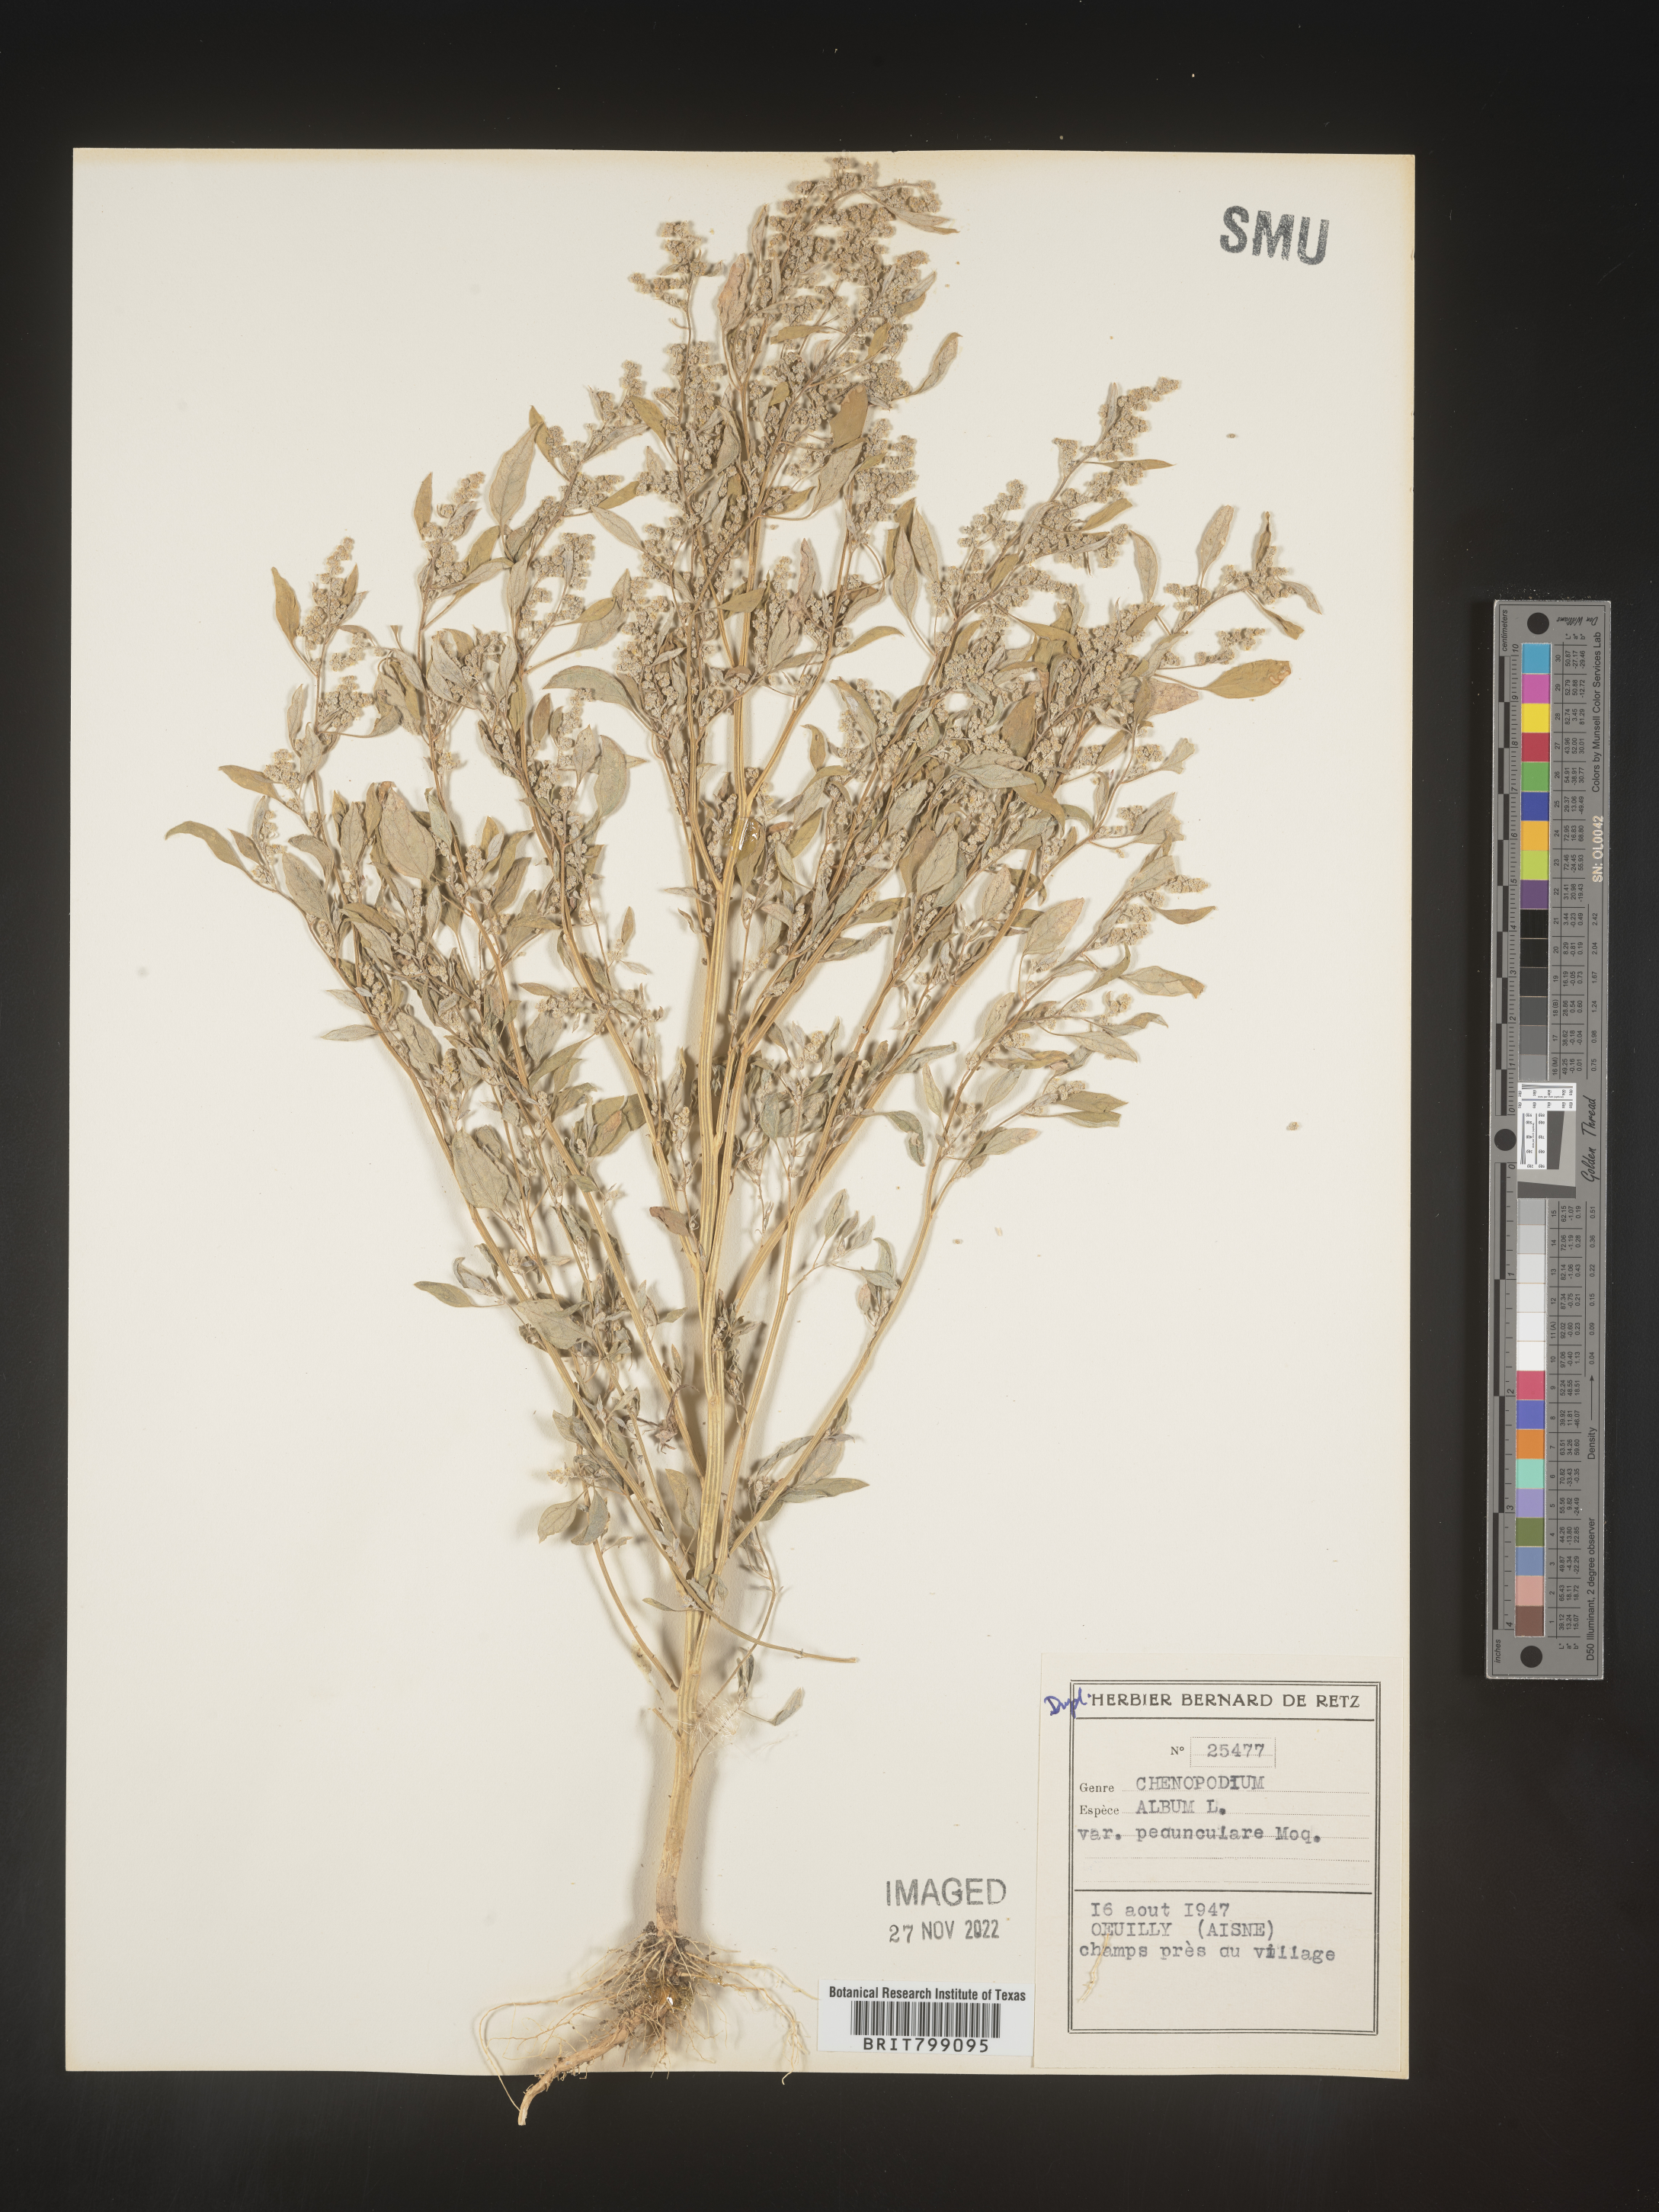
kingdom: Plantae
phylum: Tracheophyta
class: Magnoliopsida
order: Caryophyllales
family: Amaranthaceae
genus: Chenopodium
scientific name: Chenopodium
